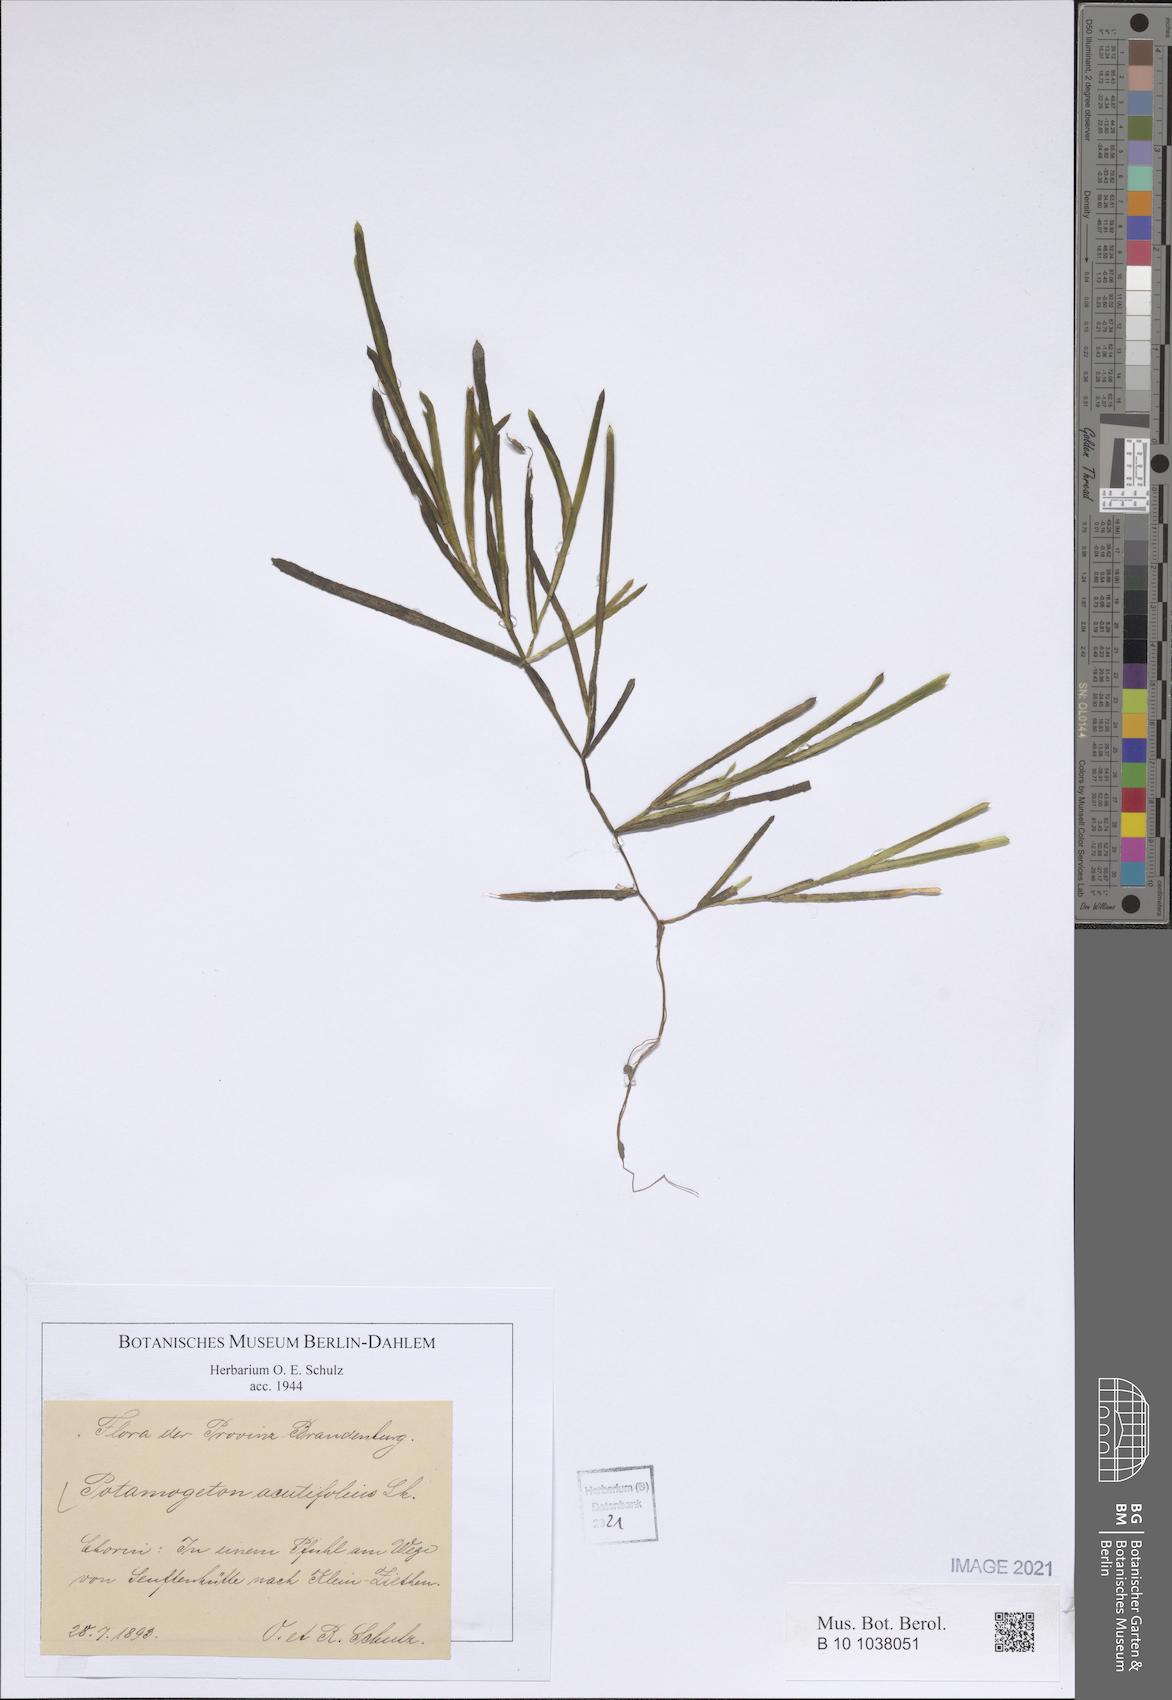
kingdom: Plantae
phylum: Tracheophyta
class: Liliopsida
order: Alismatales
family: Potamogetonaceae
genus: Potamogeton
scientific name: Potamogeton acutifolius
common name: Sharp-leaved pondweed
